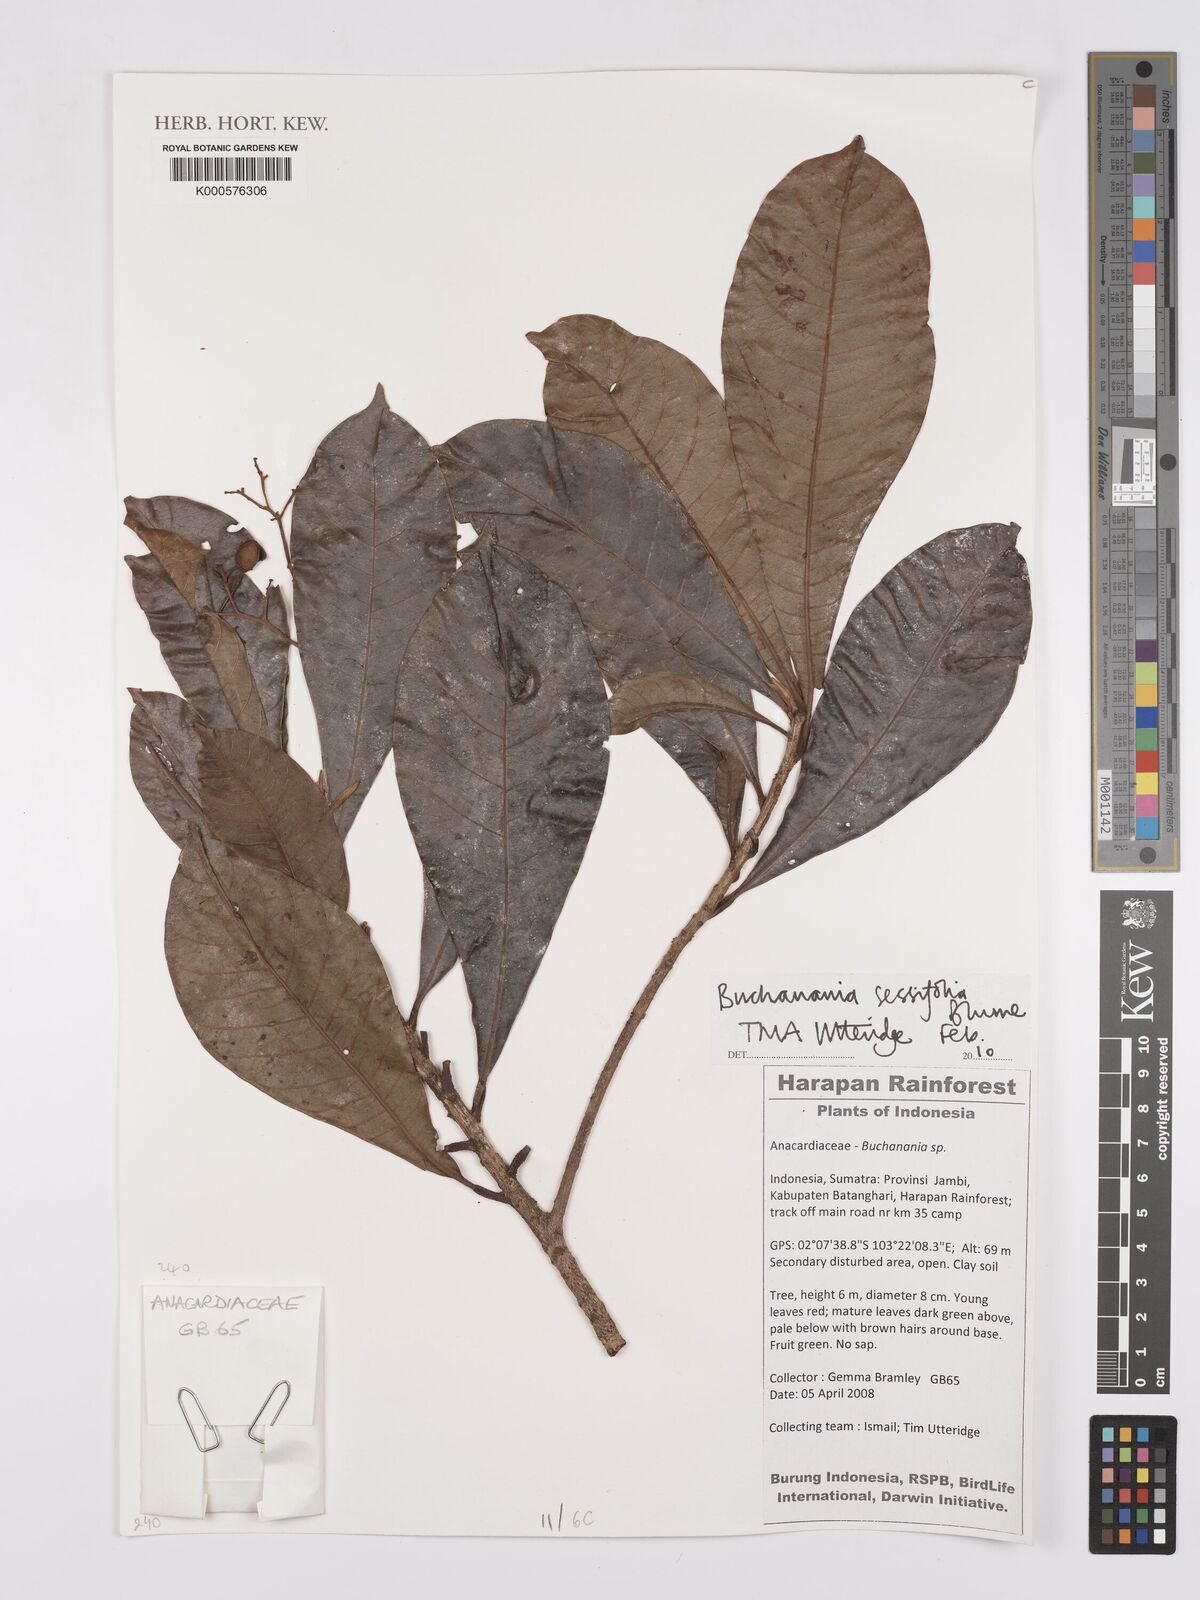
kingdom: Plantae
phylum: Tracheophyta
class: Magnoliopsida
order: Sapindales
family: Anacardiaceae
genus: Buchanania
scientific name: Buchanania sessifolia
